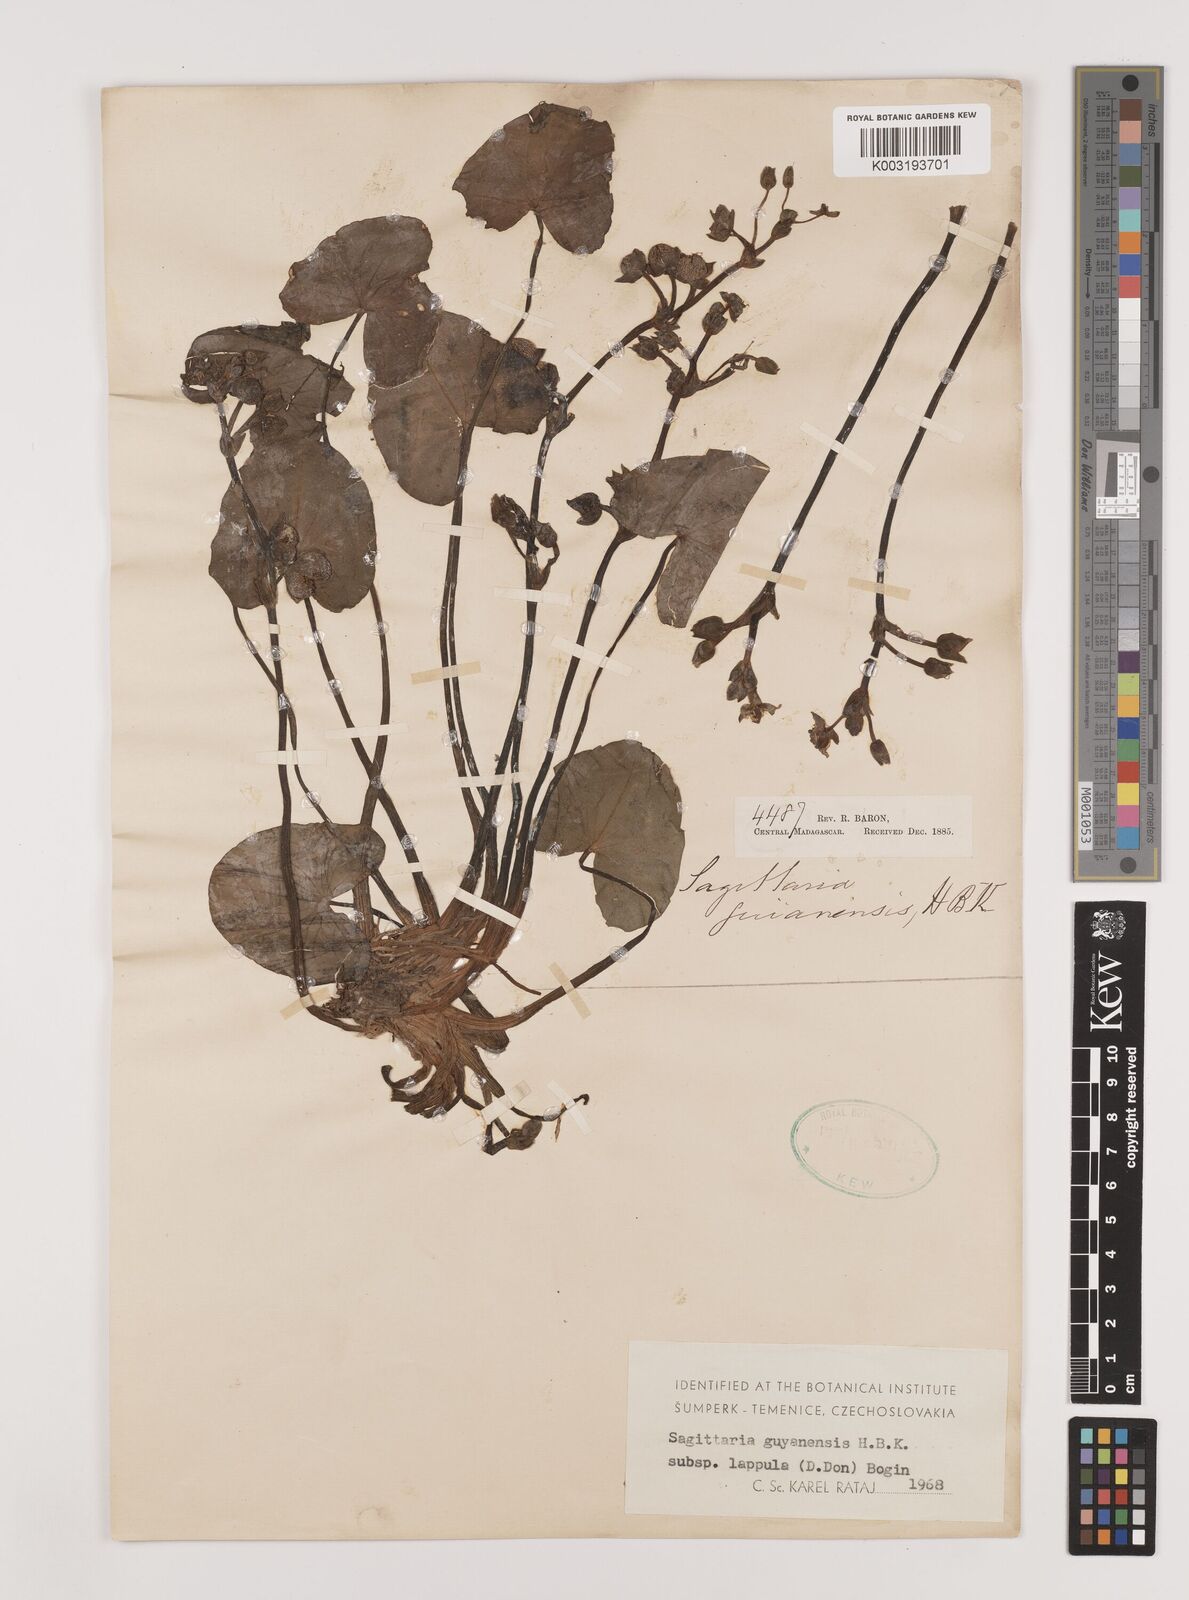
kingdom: Plantae
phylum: Tracheophyta
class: Liliopsida
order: Alismatales
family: Alismataceae
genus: Sagittaria
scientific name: Sagittaria guayanensis
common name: Guyanese arrowhead
